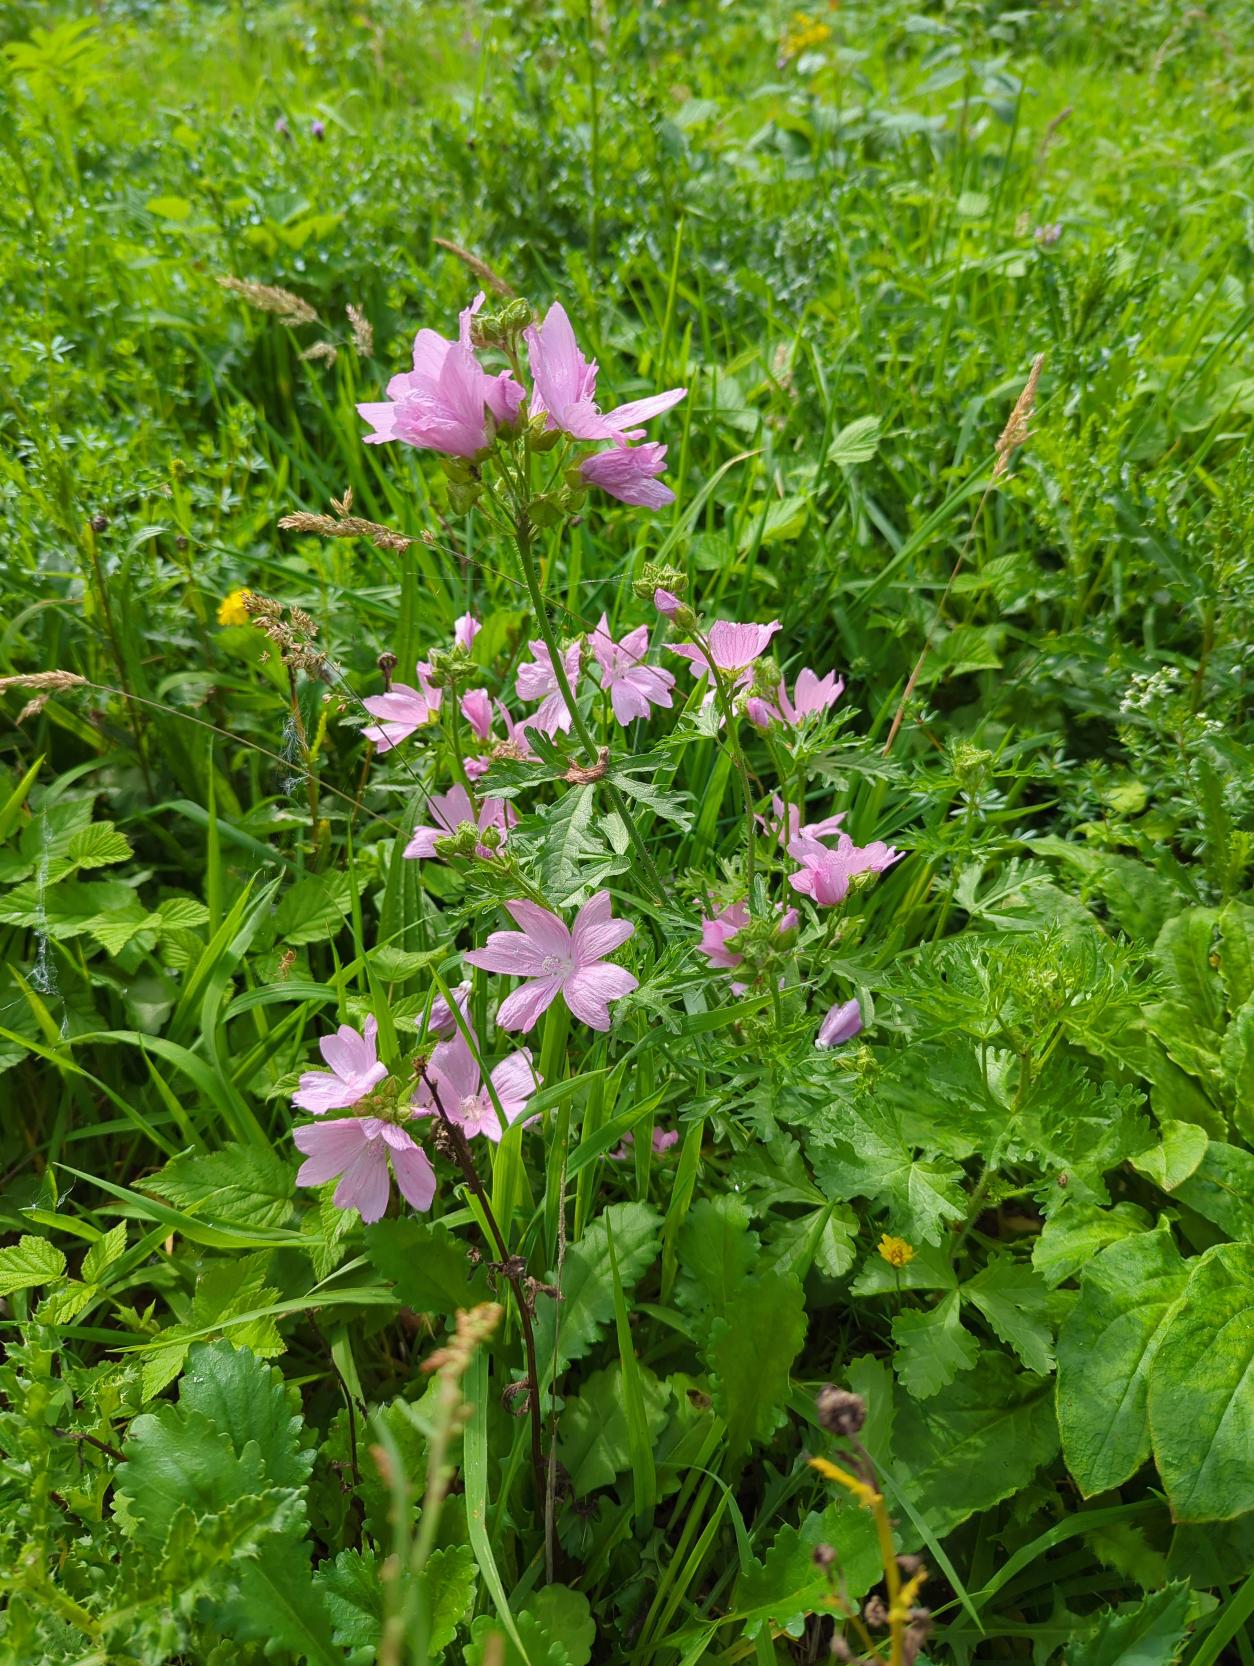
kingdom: Plantae
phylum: Tracheophyta
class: Magnoliopsida
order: Malvales
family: Malvaceae
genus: Malva
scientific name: Malva moschata
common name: Moskus-katost
